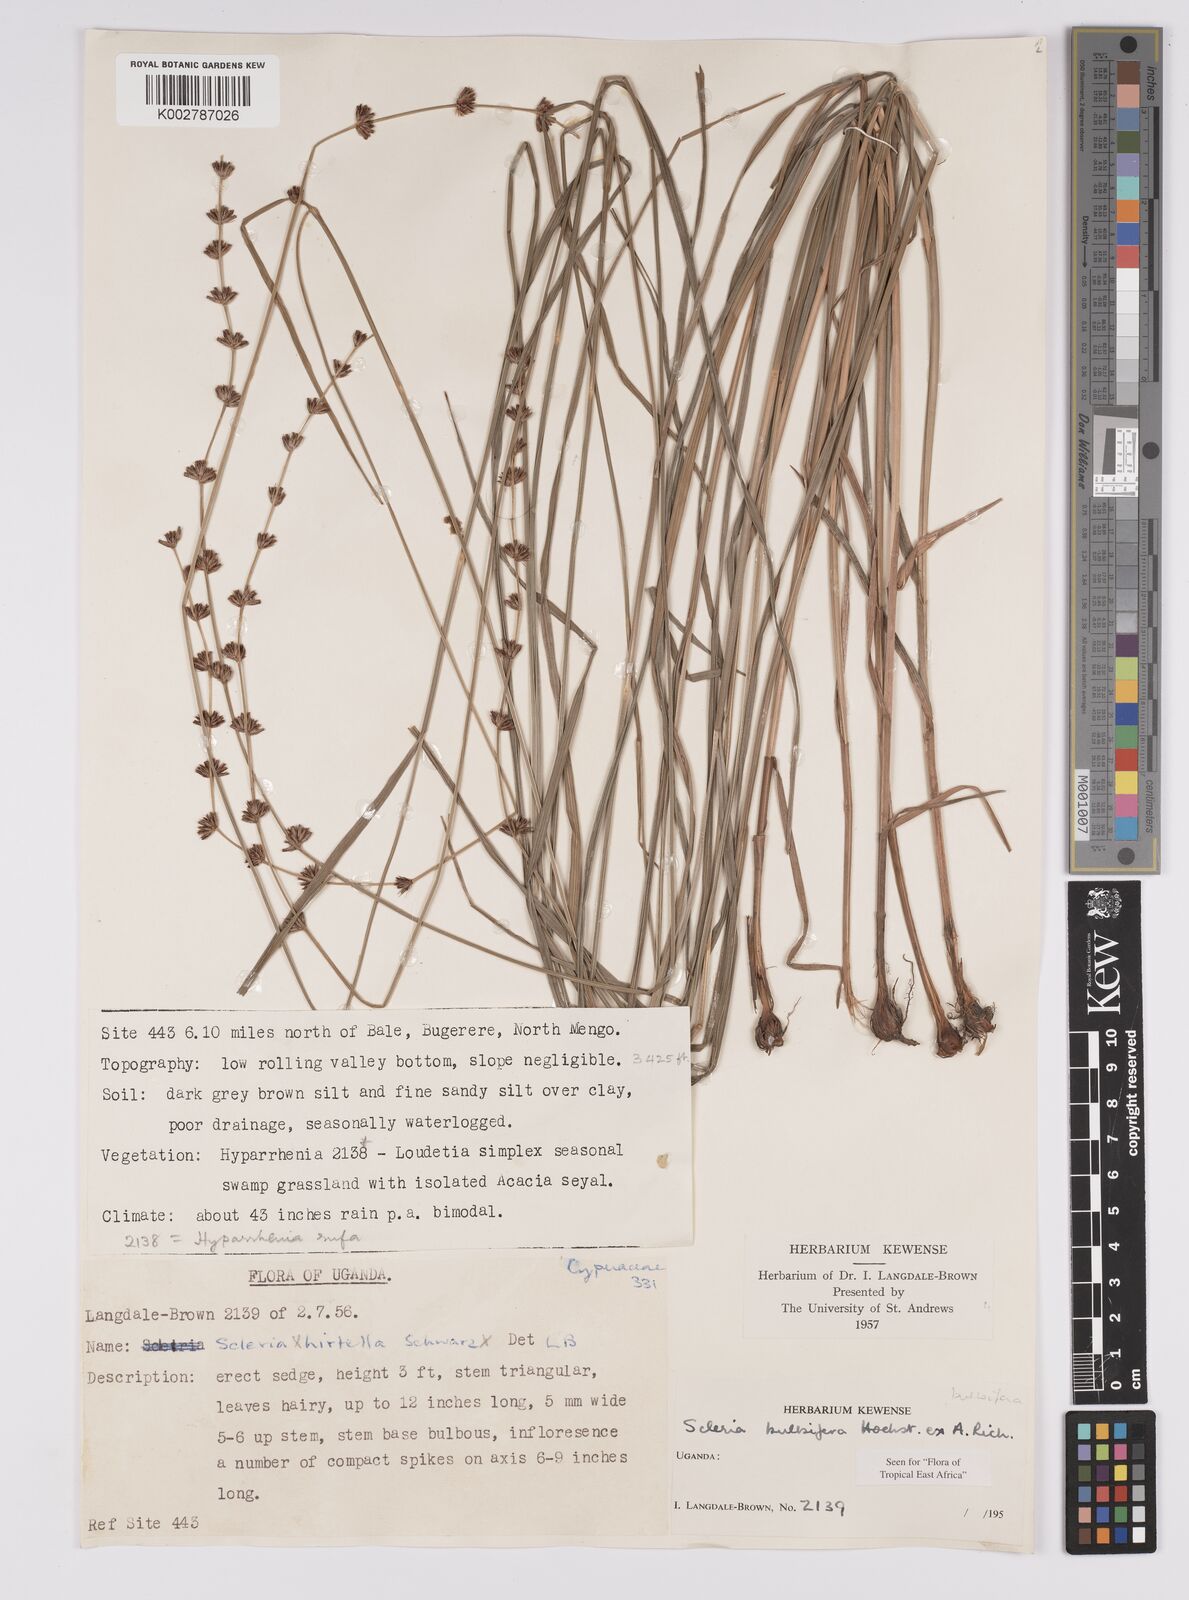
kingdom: Plantae
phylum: Tracheophyta
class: Liliopsida
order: Poales
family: Cyperaceae
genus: Scleria
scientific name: Scleria bulbifera
